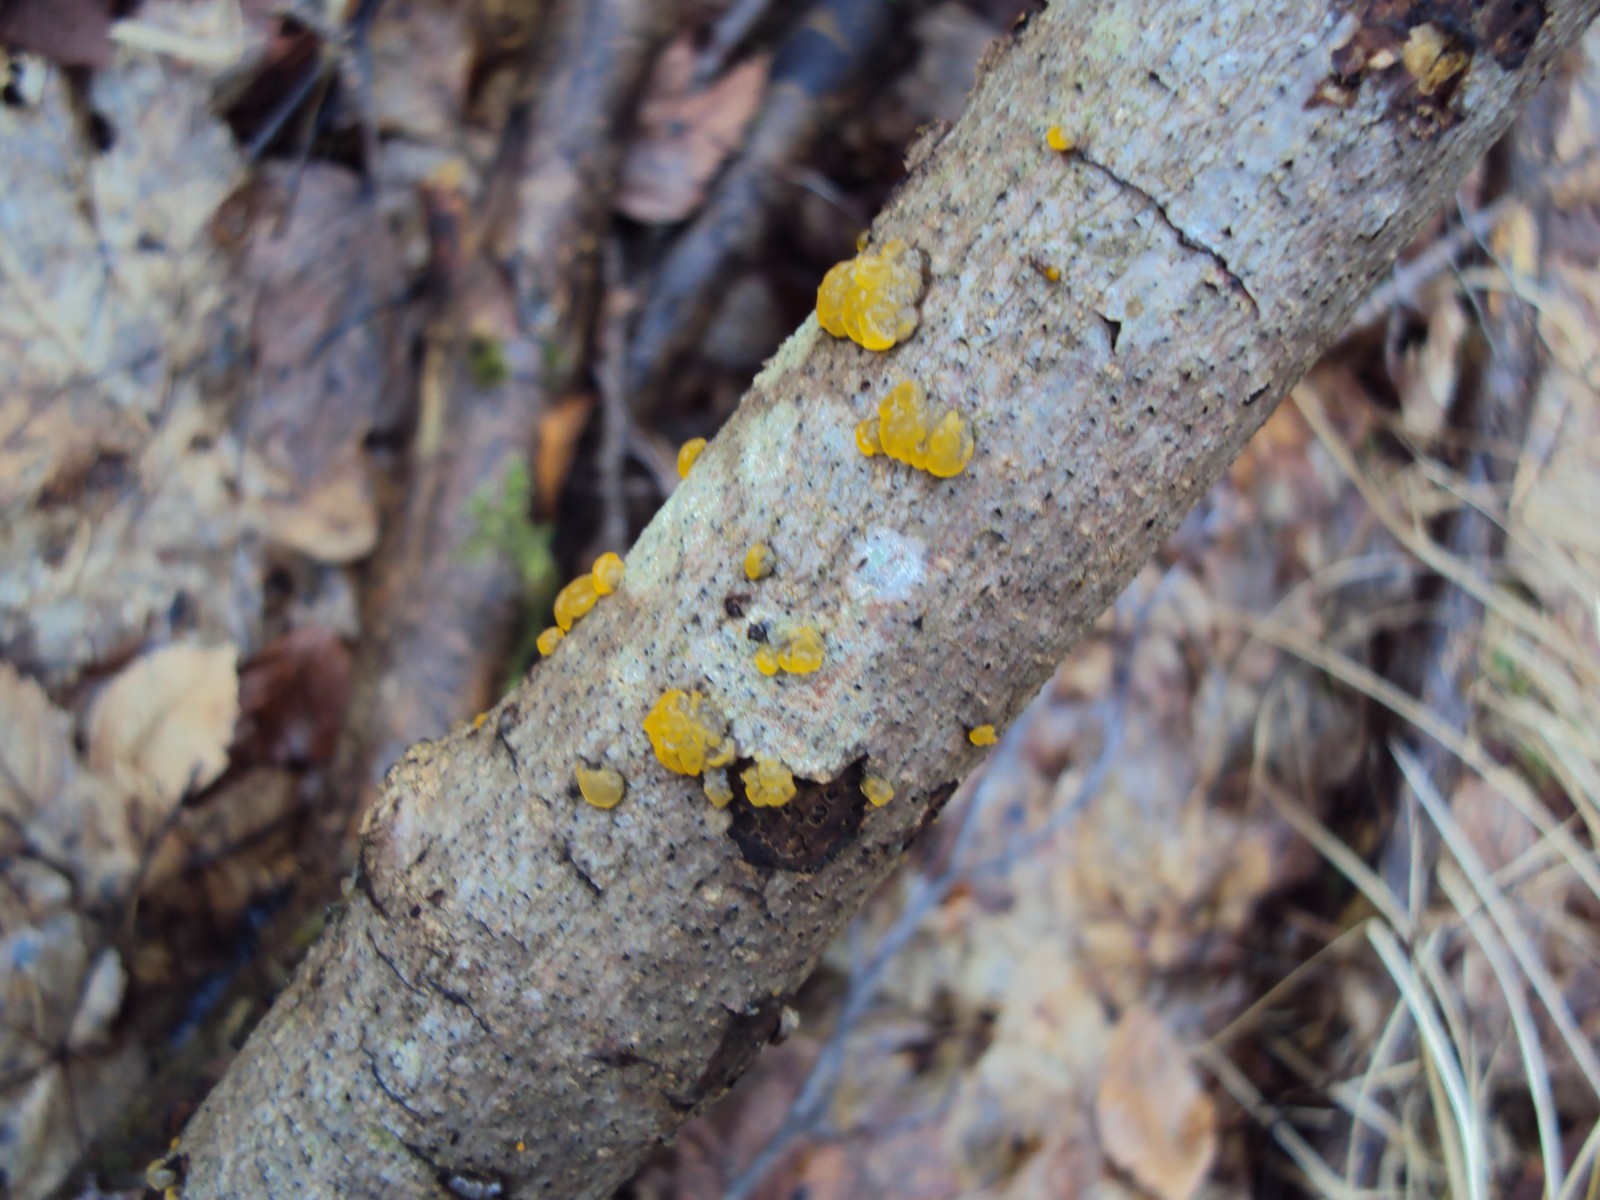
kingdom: Fungi
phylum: Basidiomycota
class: Tremellomycetes
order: Tremellales
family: Tremellaceae
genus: Tremella
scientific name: Tremella mesenterica
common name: gul bævresvamp
